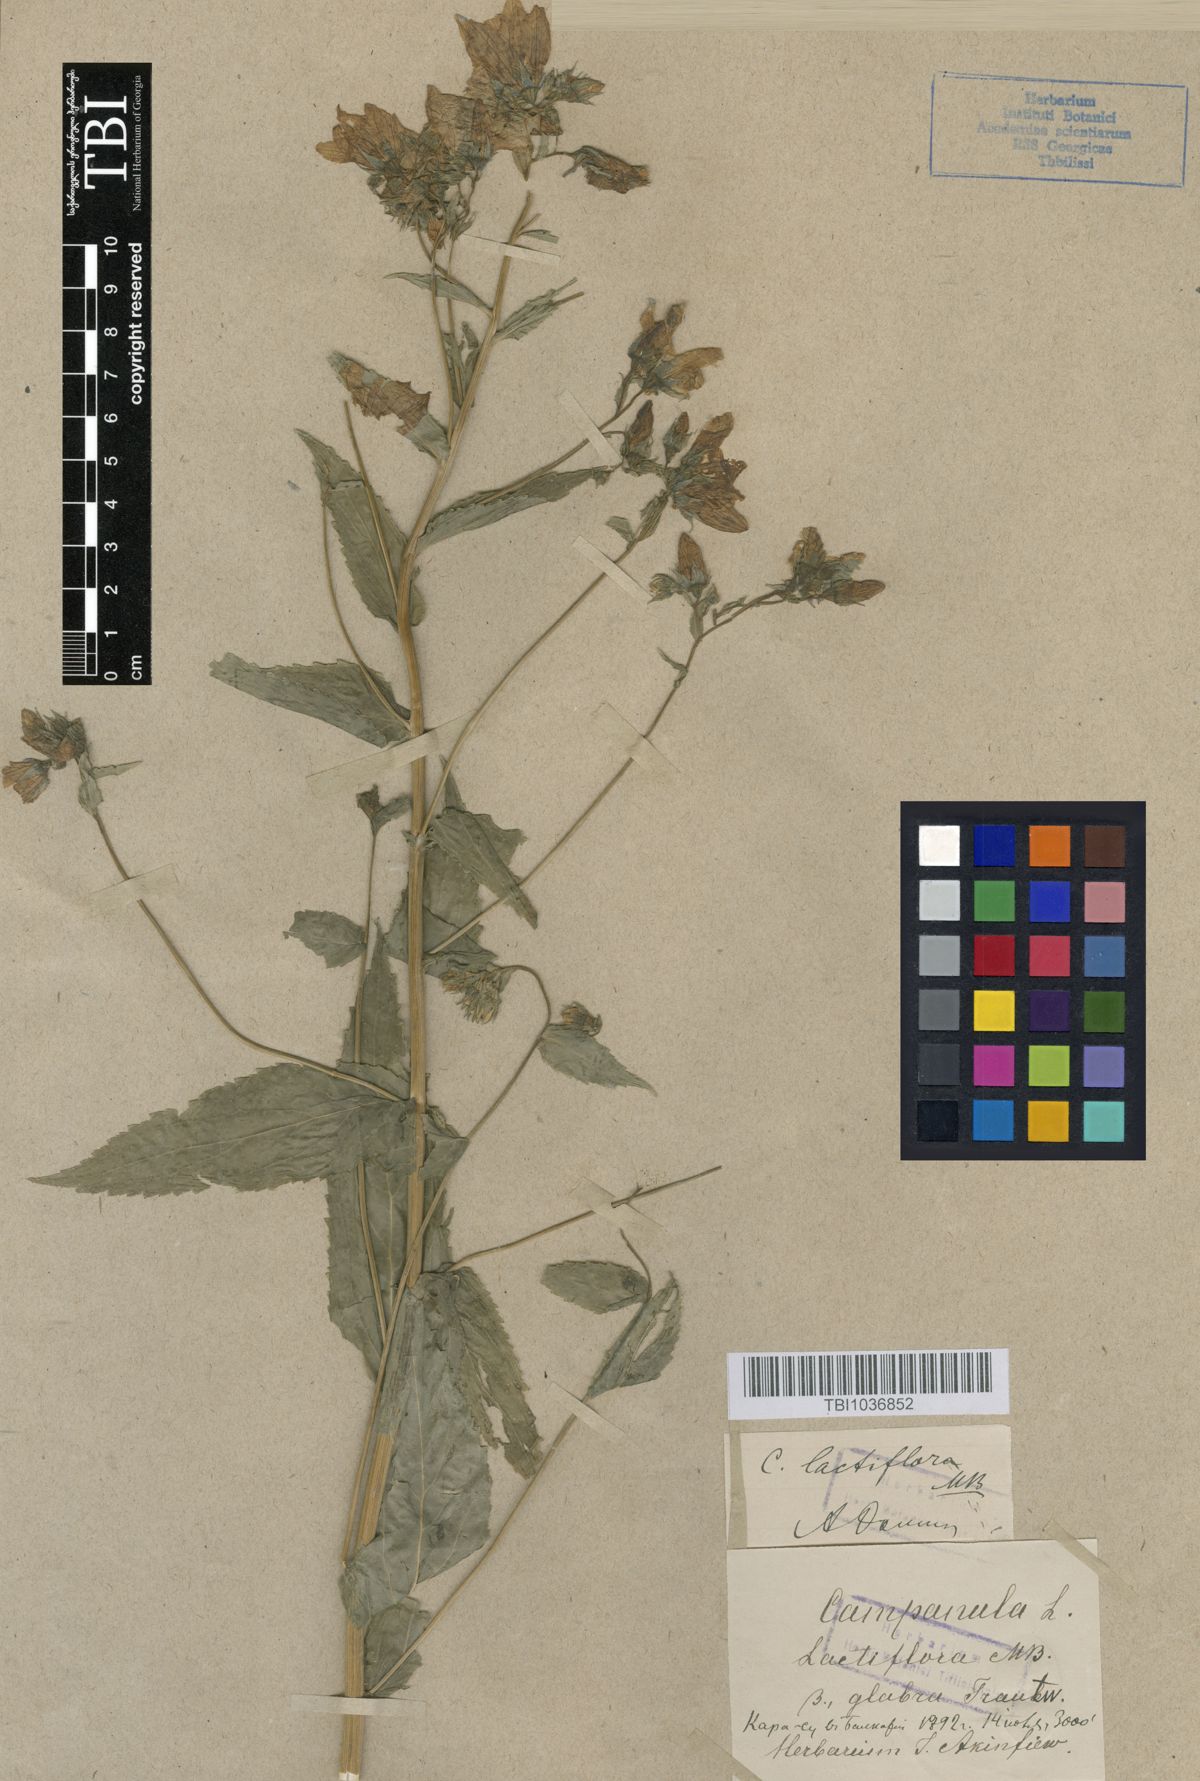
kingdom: Plantae
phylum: Tracheophyta
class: Magnoliopsida
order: Asterales
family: Campanulaceae
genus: Campanula
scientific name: Campanula lactiflora
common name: Milky bellflower
